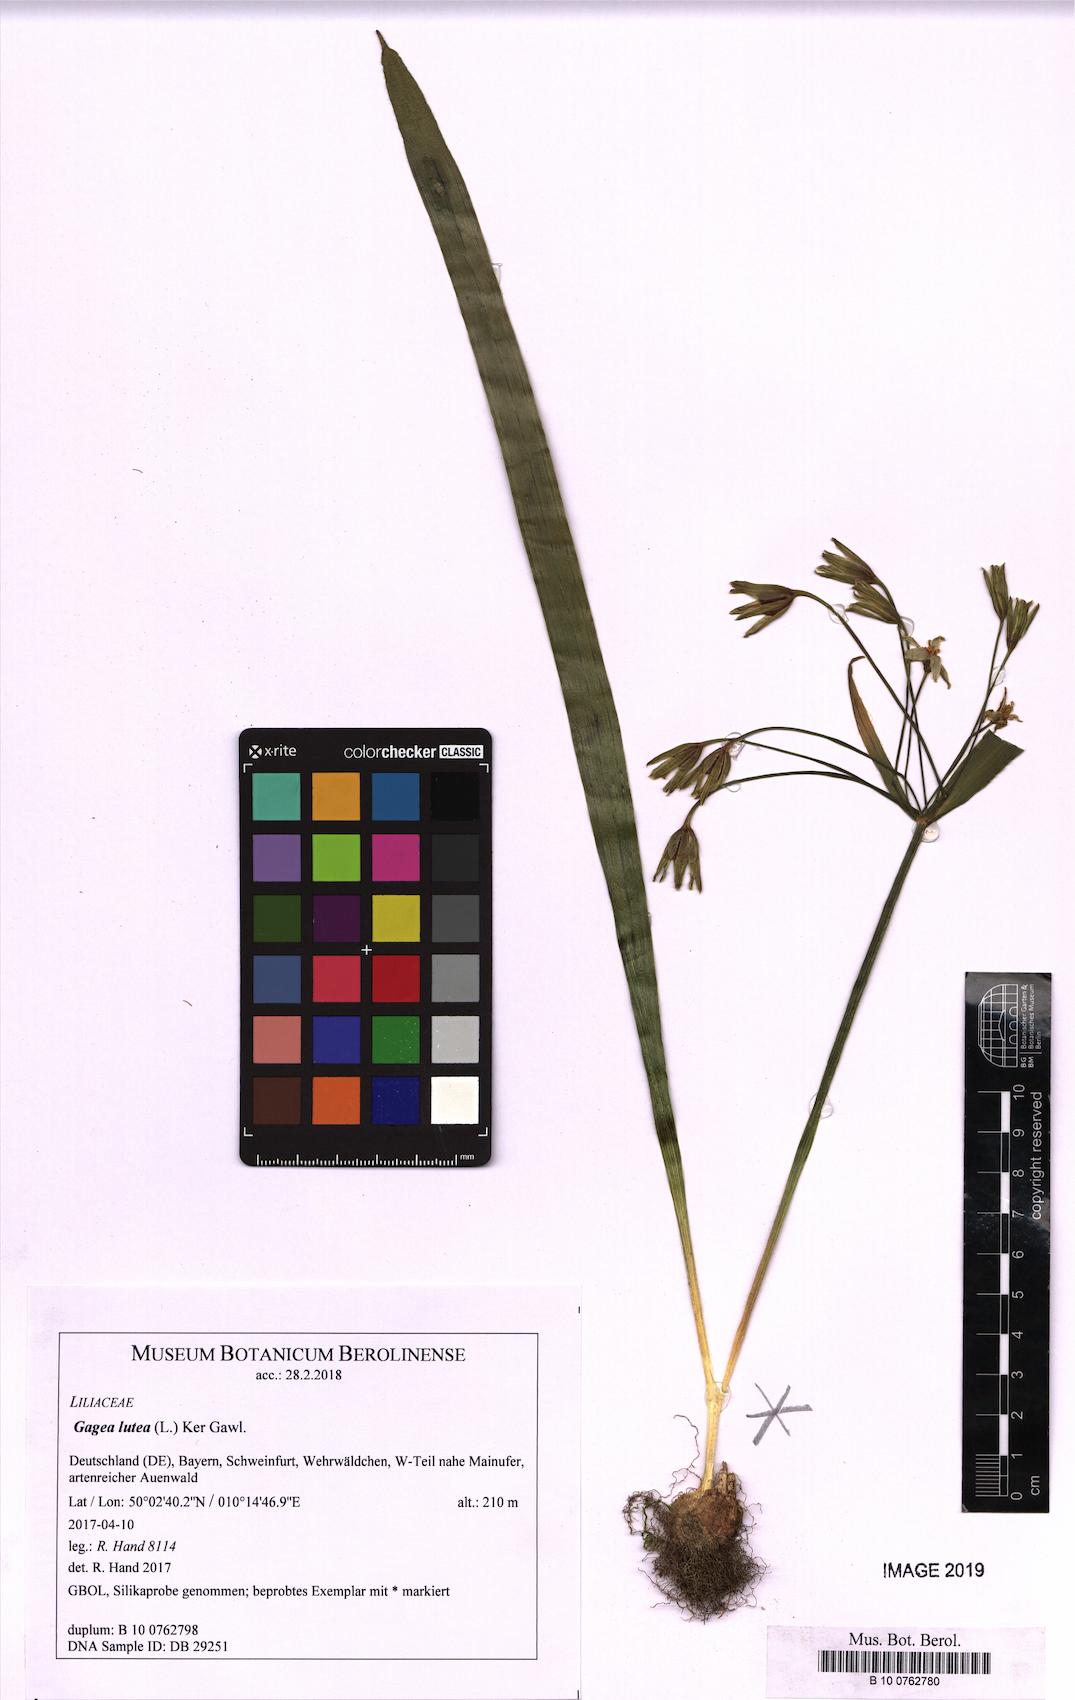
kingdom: Plantae
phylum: Tracheophyta
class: Liliopsida
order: Liliales
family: Liliaceae
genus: Gagea
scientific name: Gagea lutea
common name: Yellow star-of-bethlehem
